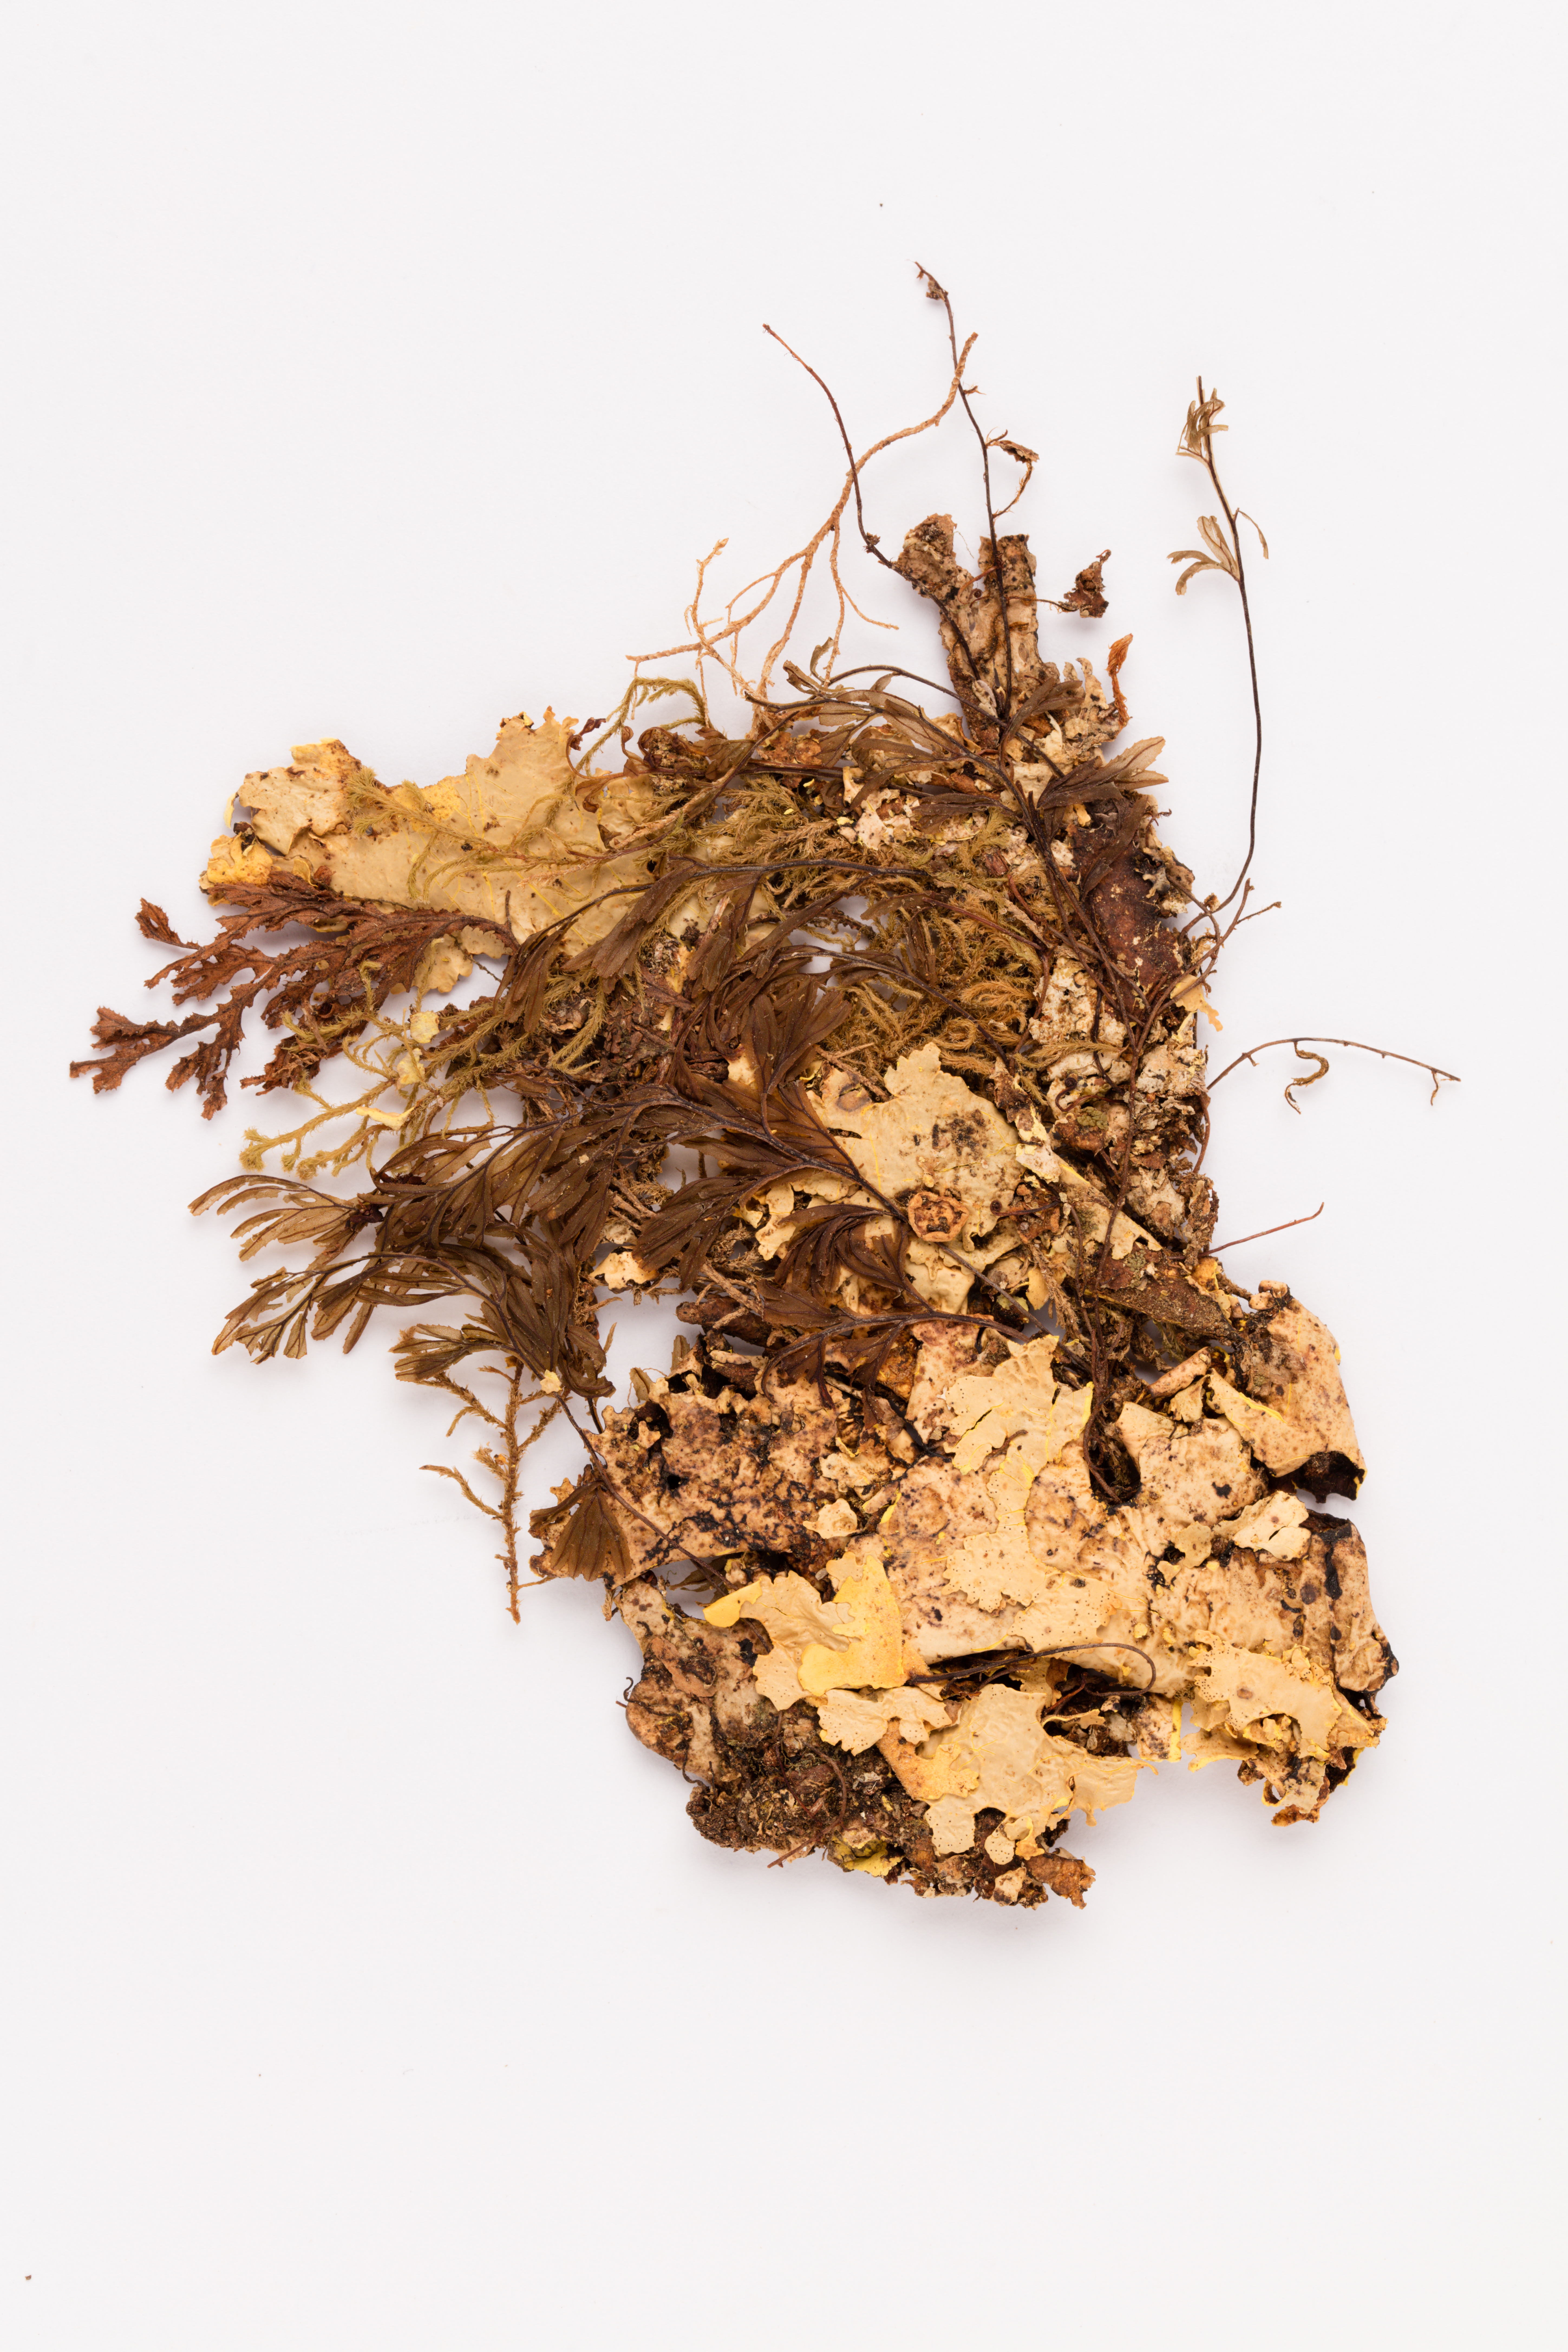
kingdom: Fungi
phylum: Ascomycota
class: Lecanoromycetes
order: Peltigerales
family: Lobariaceae
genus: Yarrumia
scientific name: Yarrumia coronata
